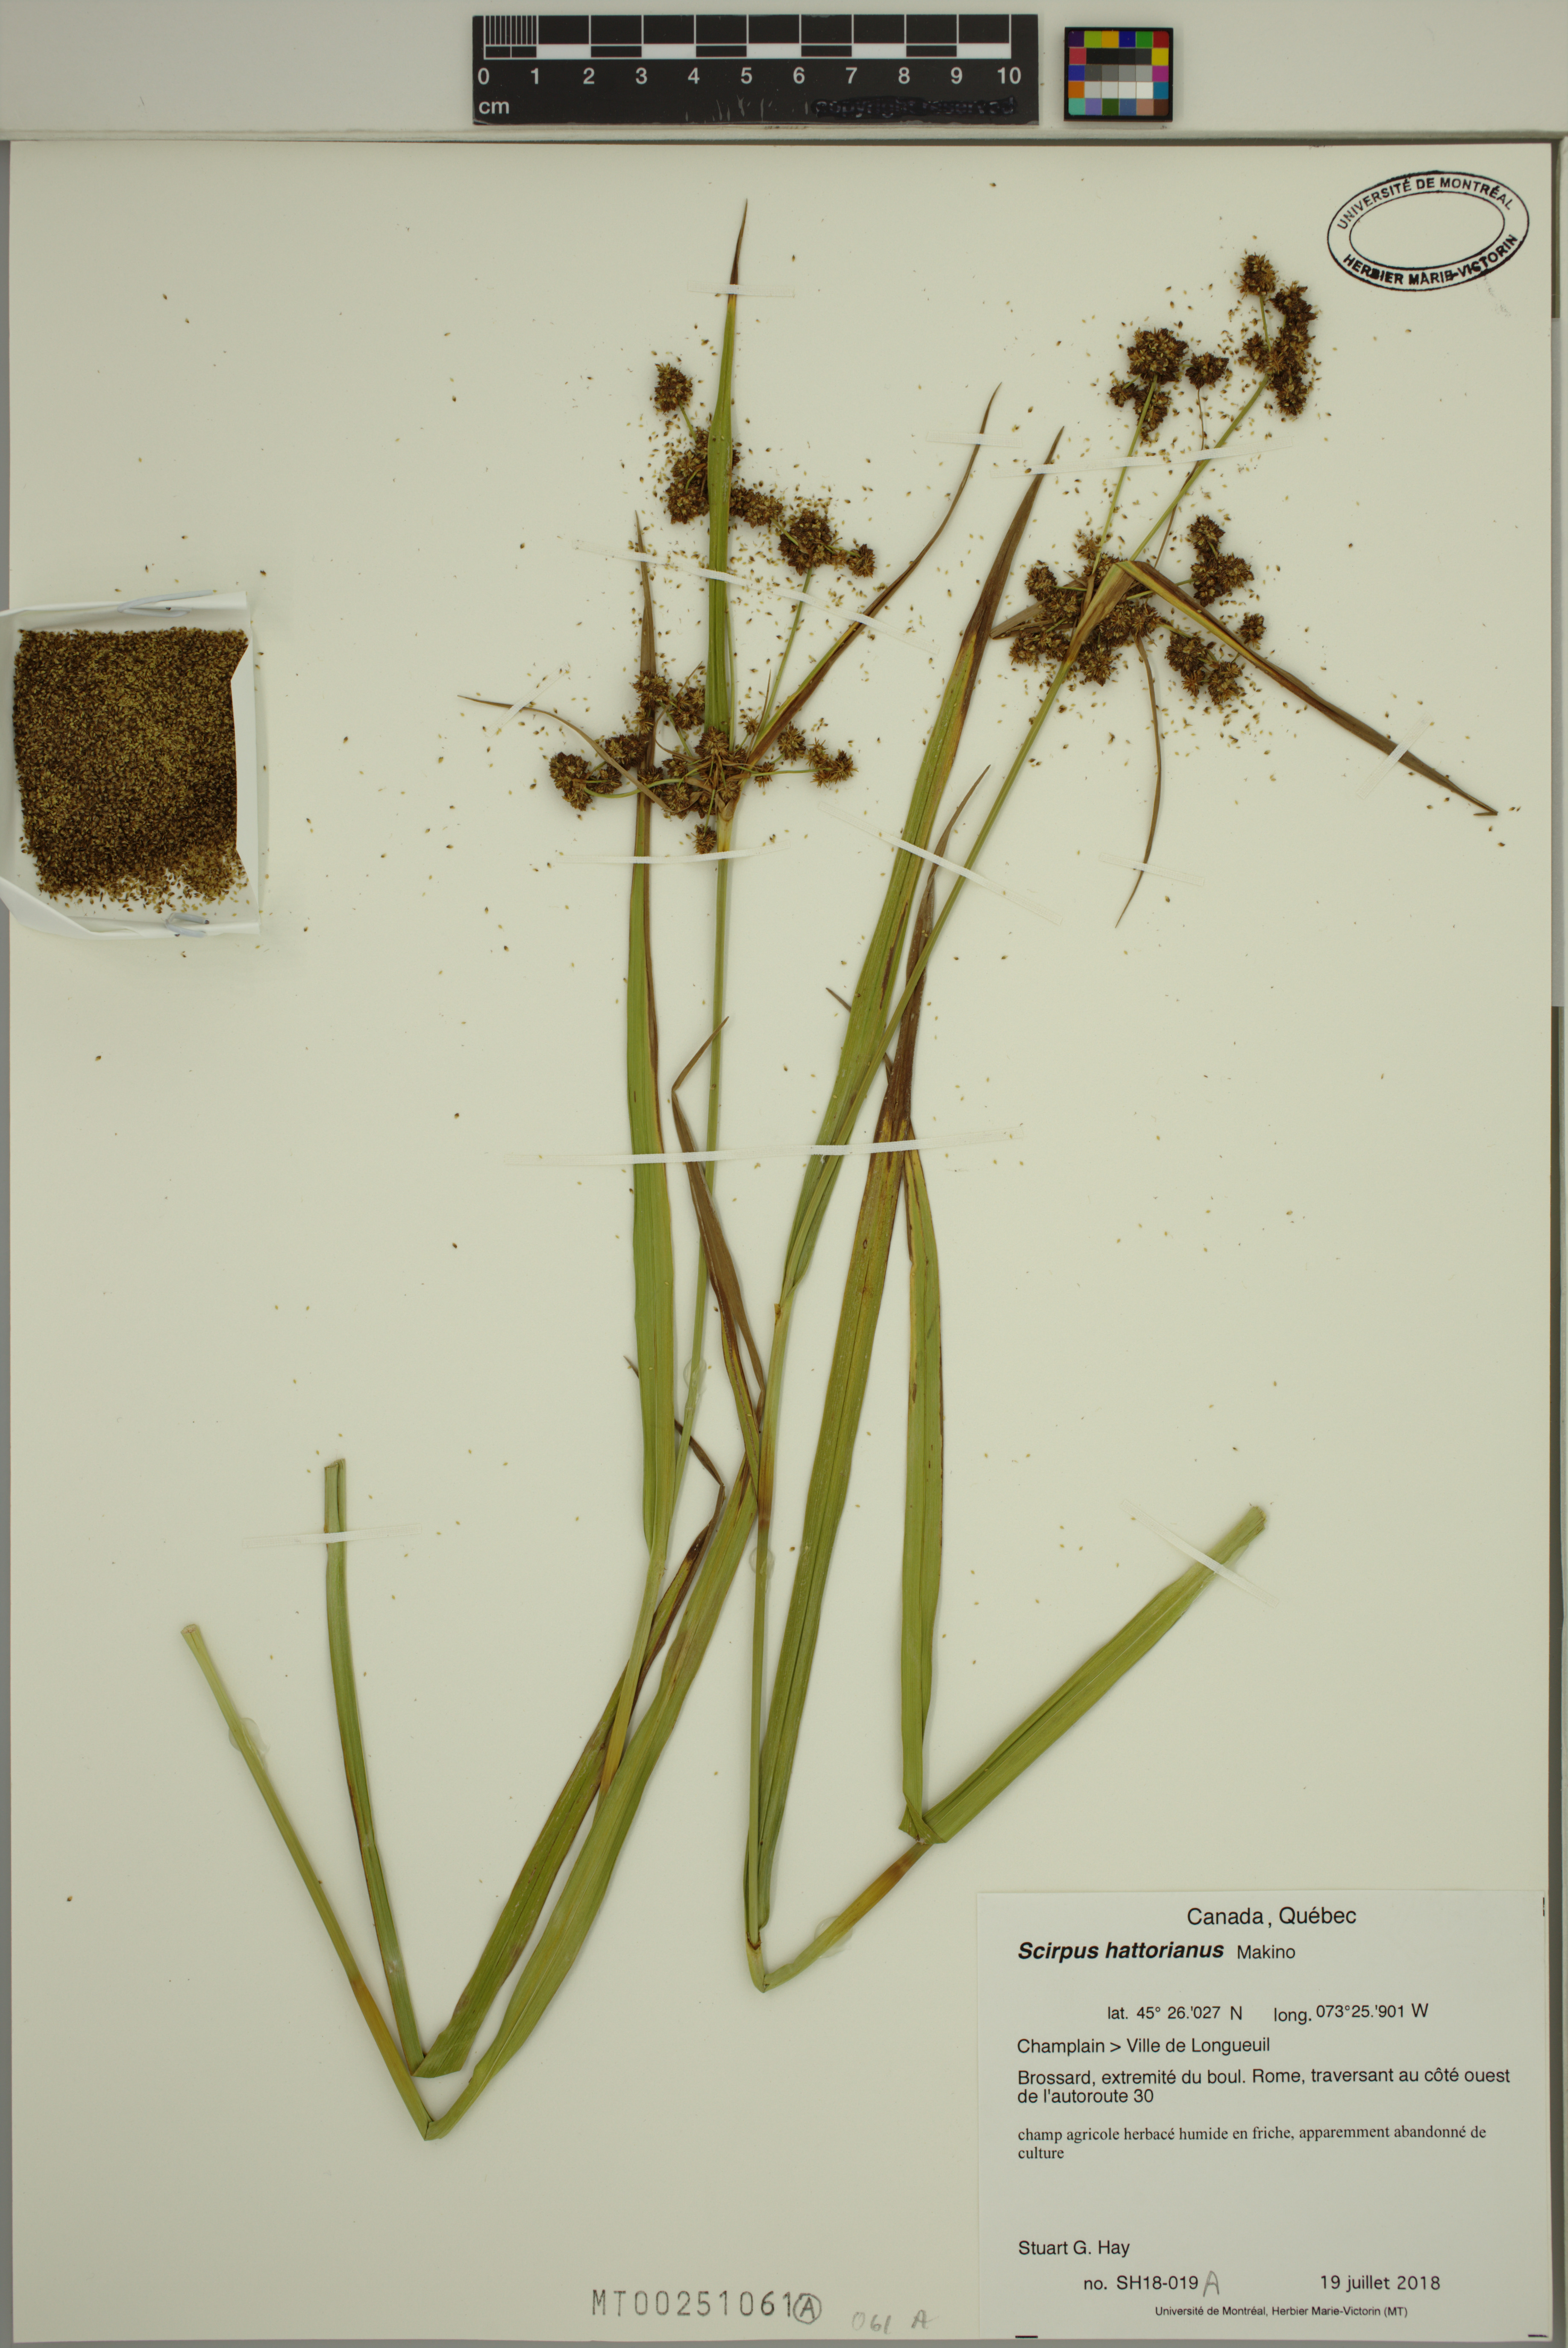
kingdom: Plantae
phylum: Tracheophyta
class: Liliopsida
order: Poales
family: Cyperaceae
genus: Scirpus
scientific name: Scirpus hattorianus
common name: Early dark-green bulrush
